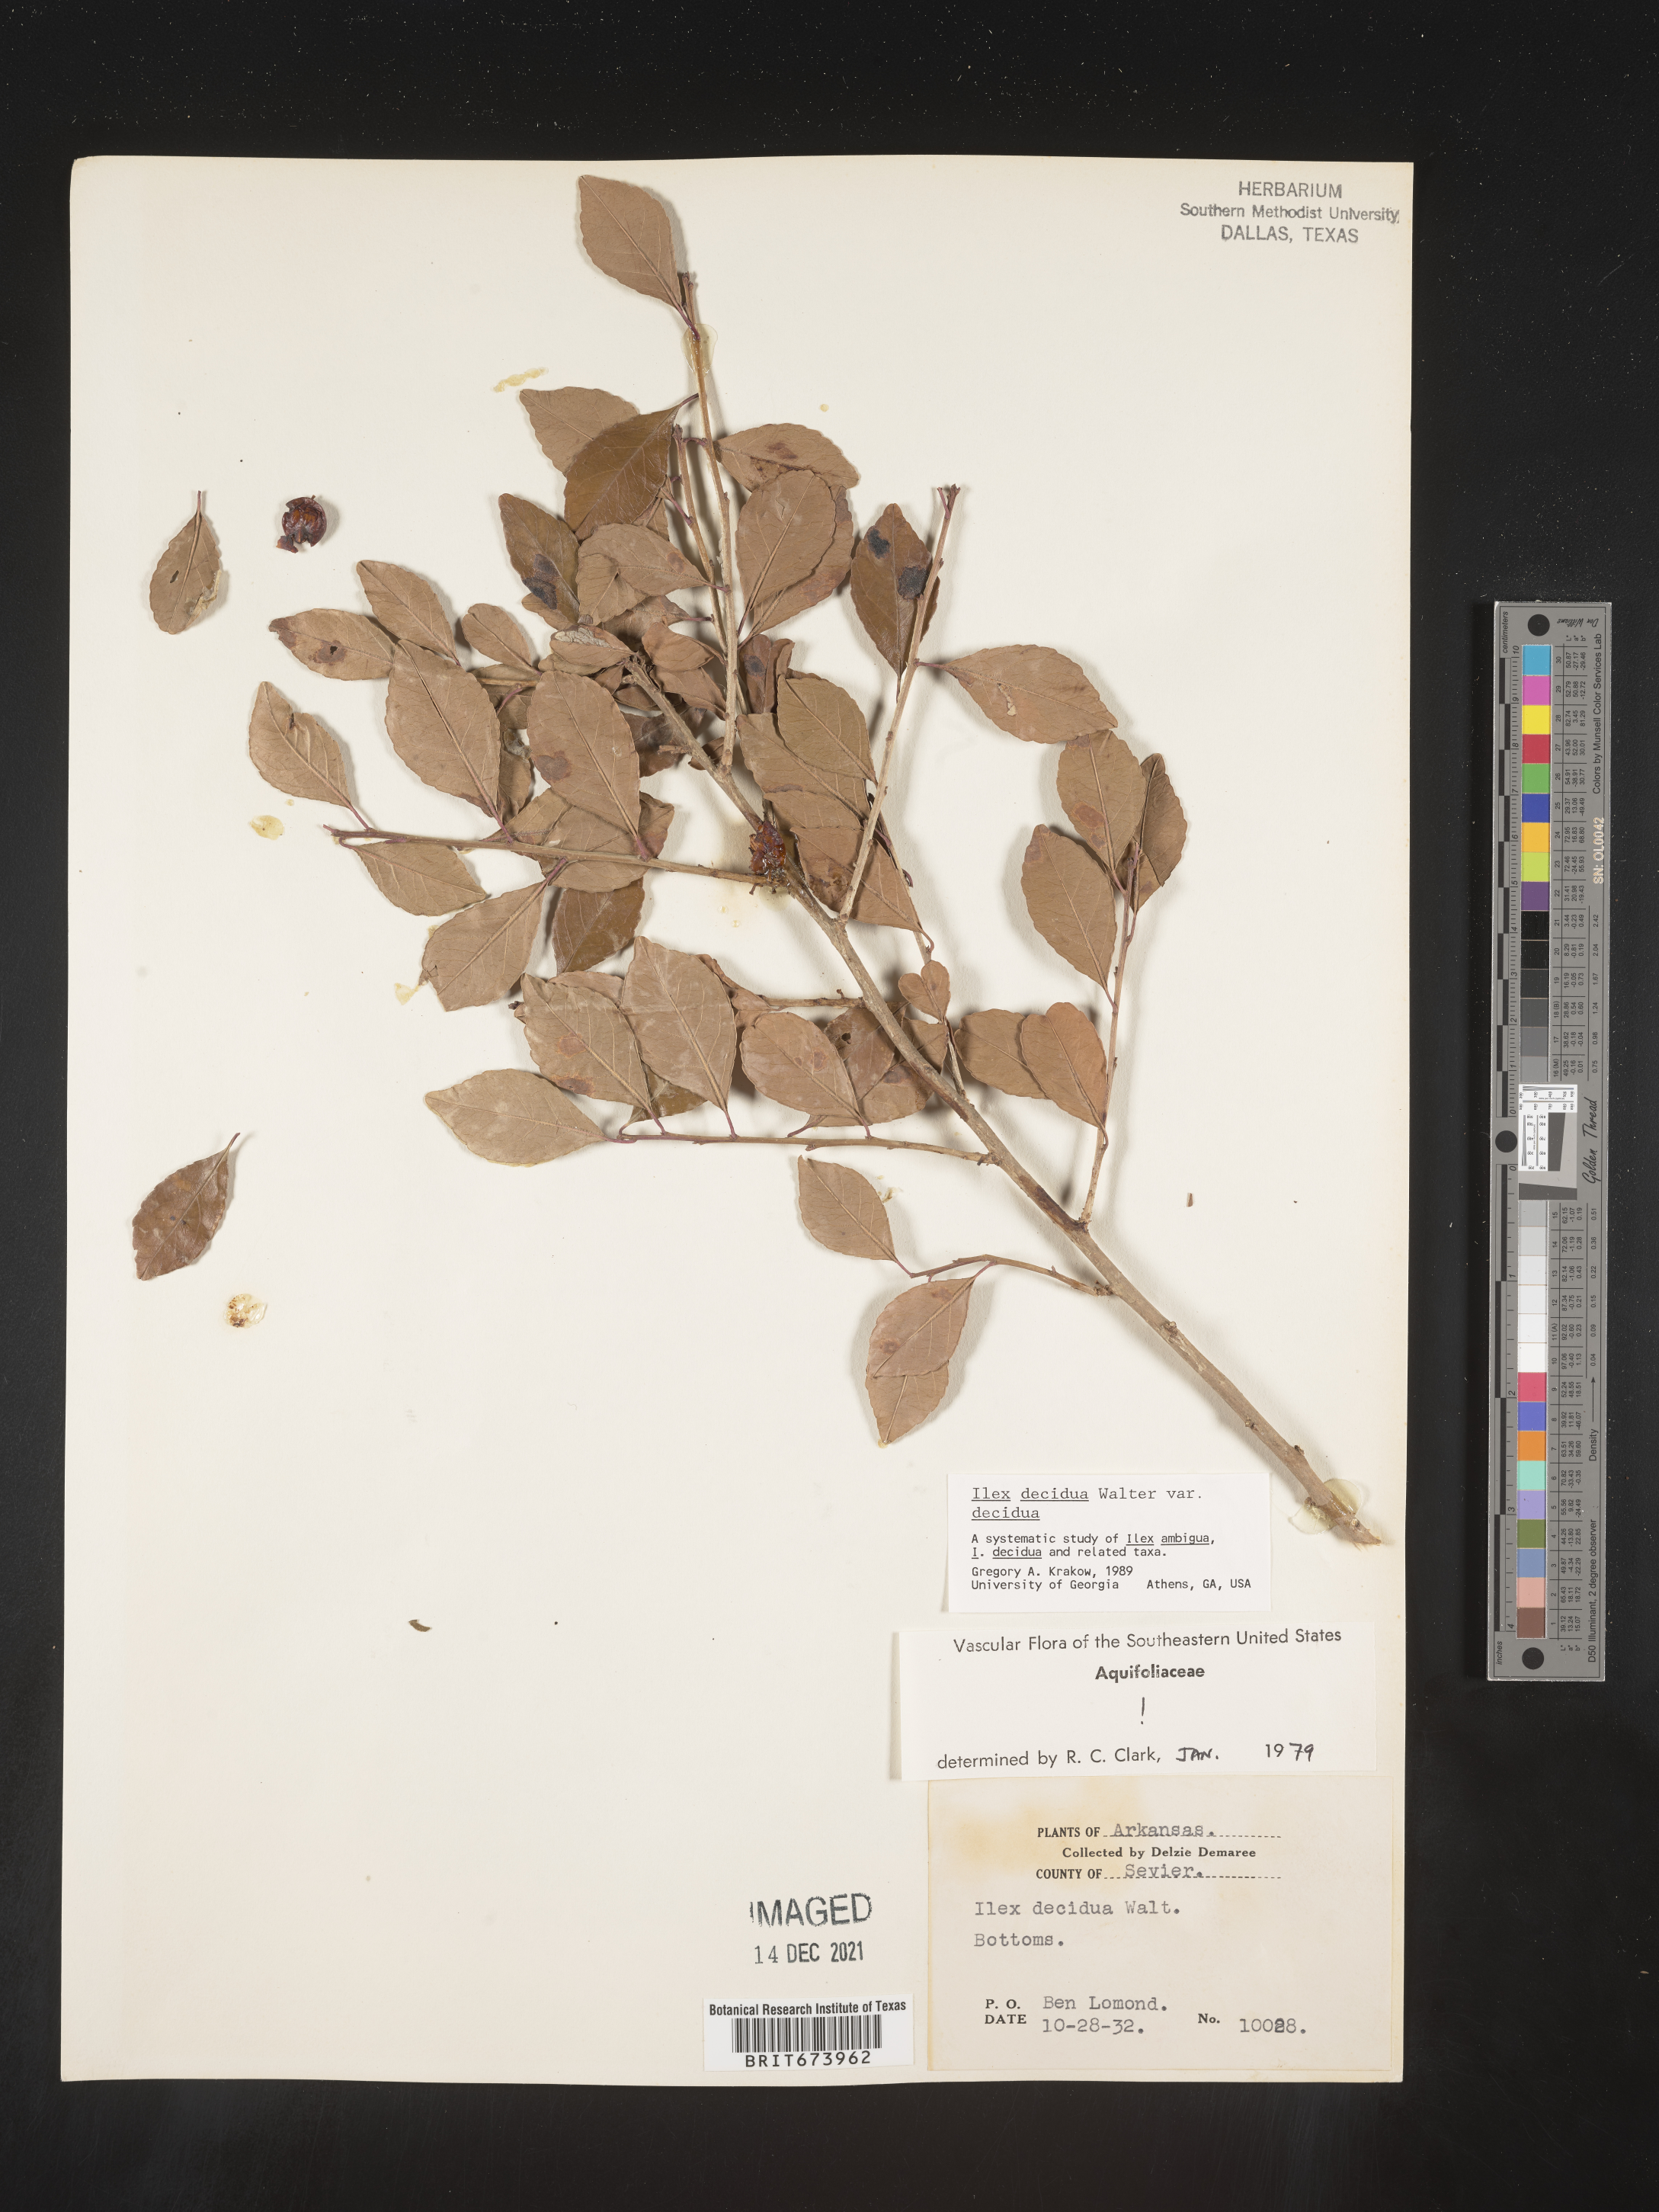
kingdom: Plantae
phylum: Tracheophyta
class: Magnoliopsida
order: Aquifoliales
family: Aquifoliaceae
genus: Ilex
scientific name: Ilex decidua
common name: Possum-haw
